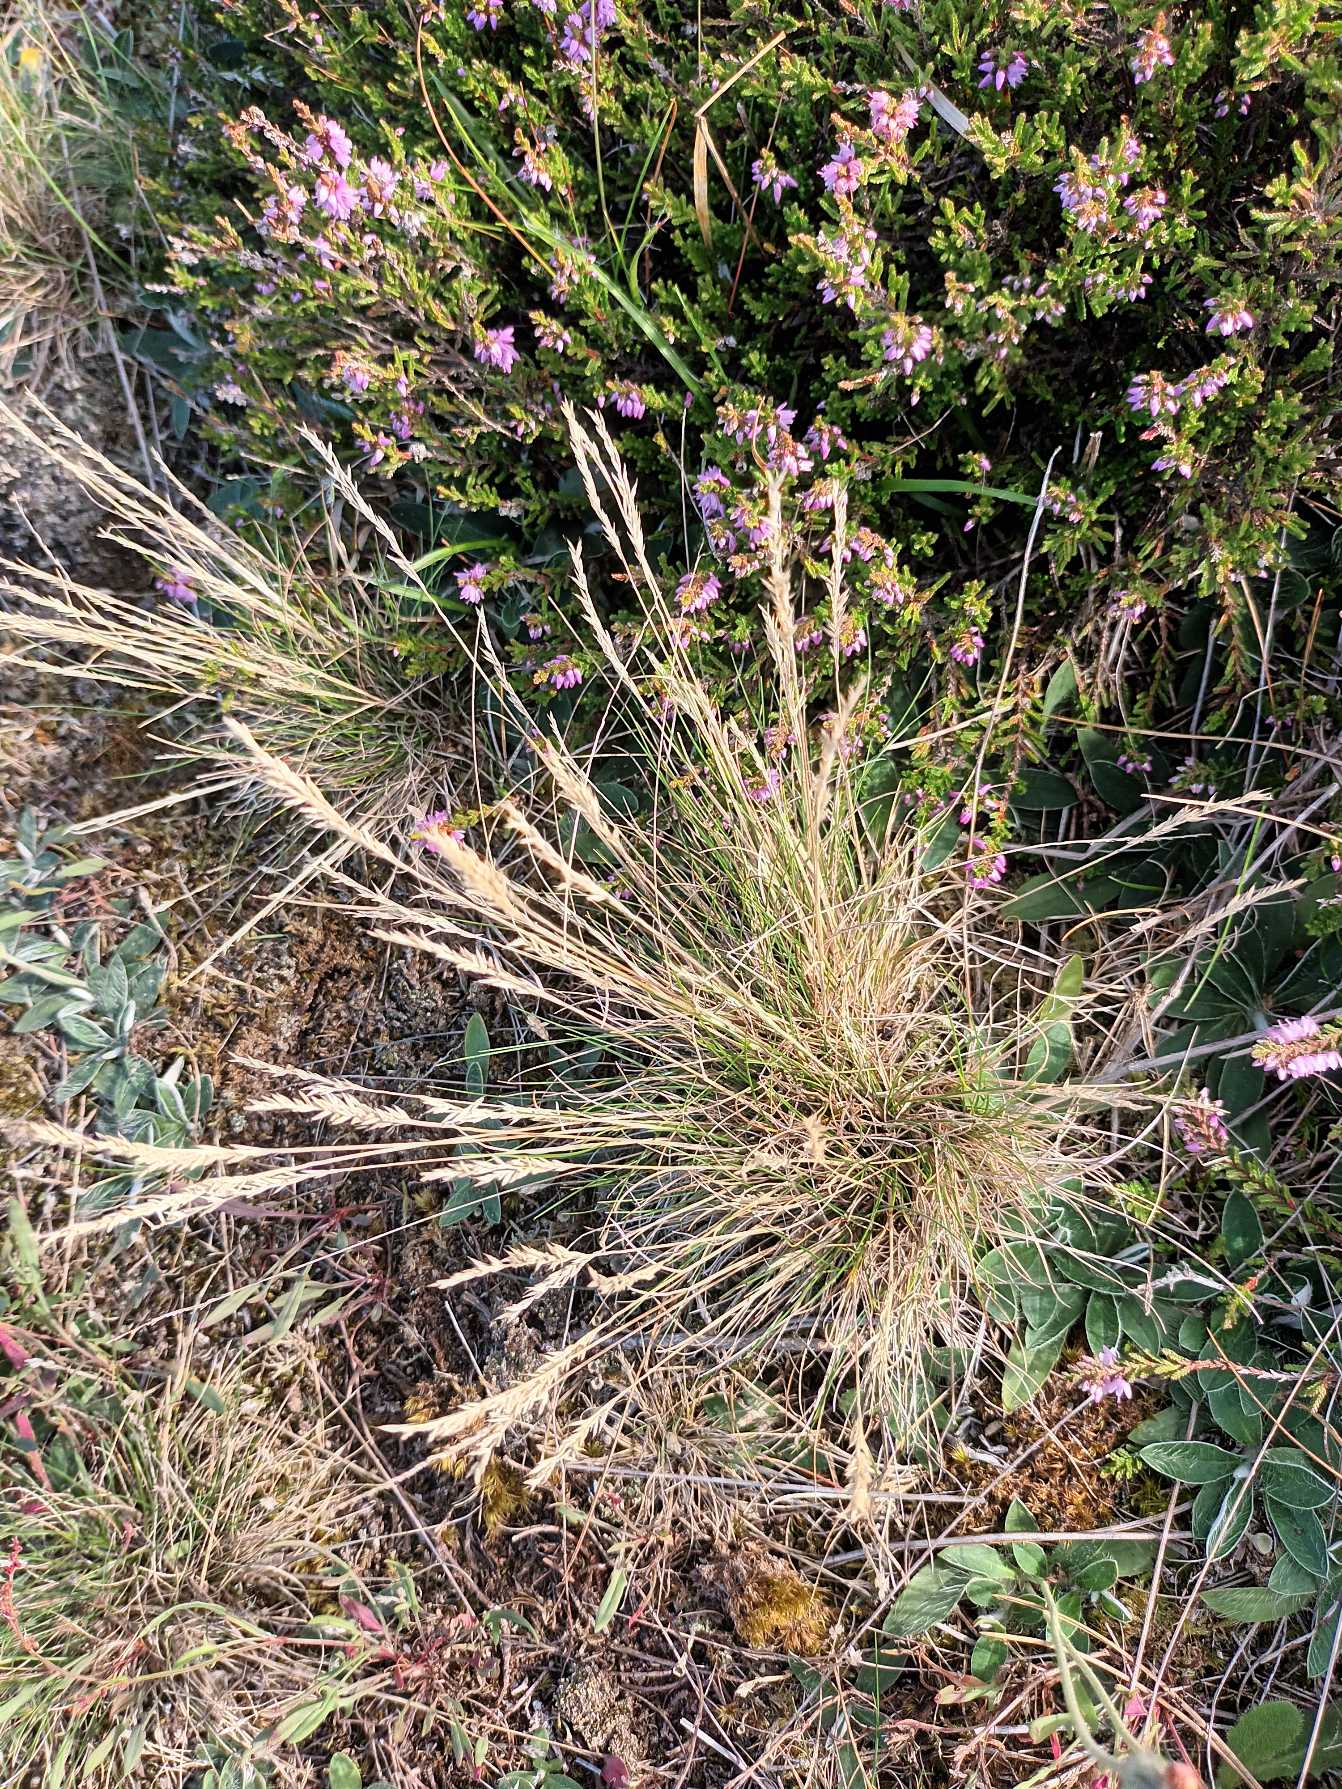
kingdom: Plantae
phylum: Tracheophyta
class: Liliopsida
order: Poales
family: Poaceae
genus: Festuca
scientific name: Festuca trachyphylla
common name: Bakke-svingel
